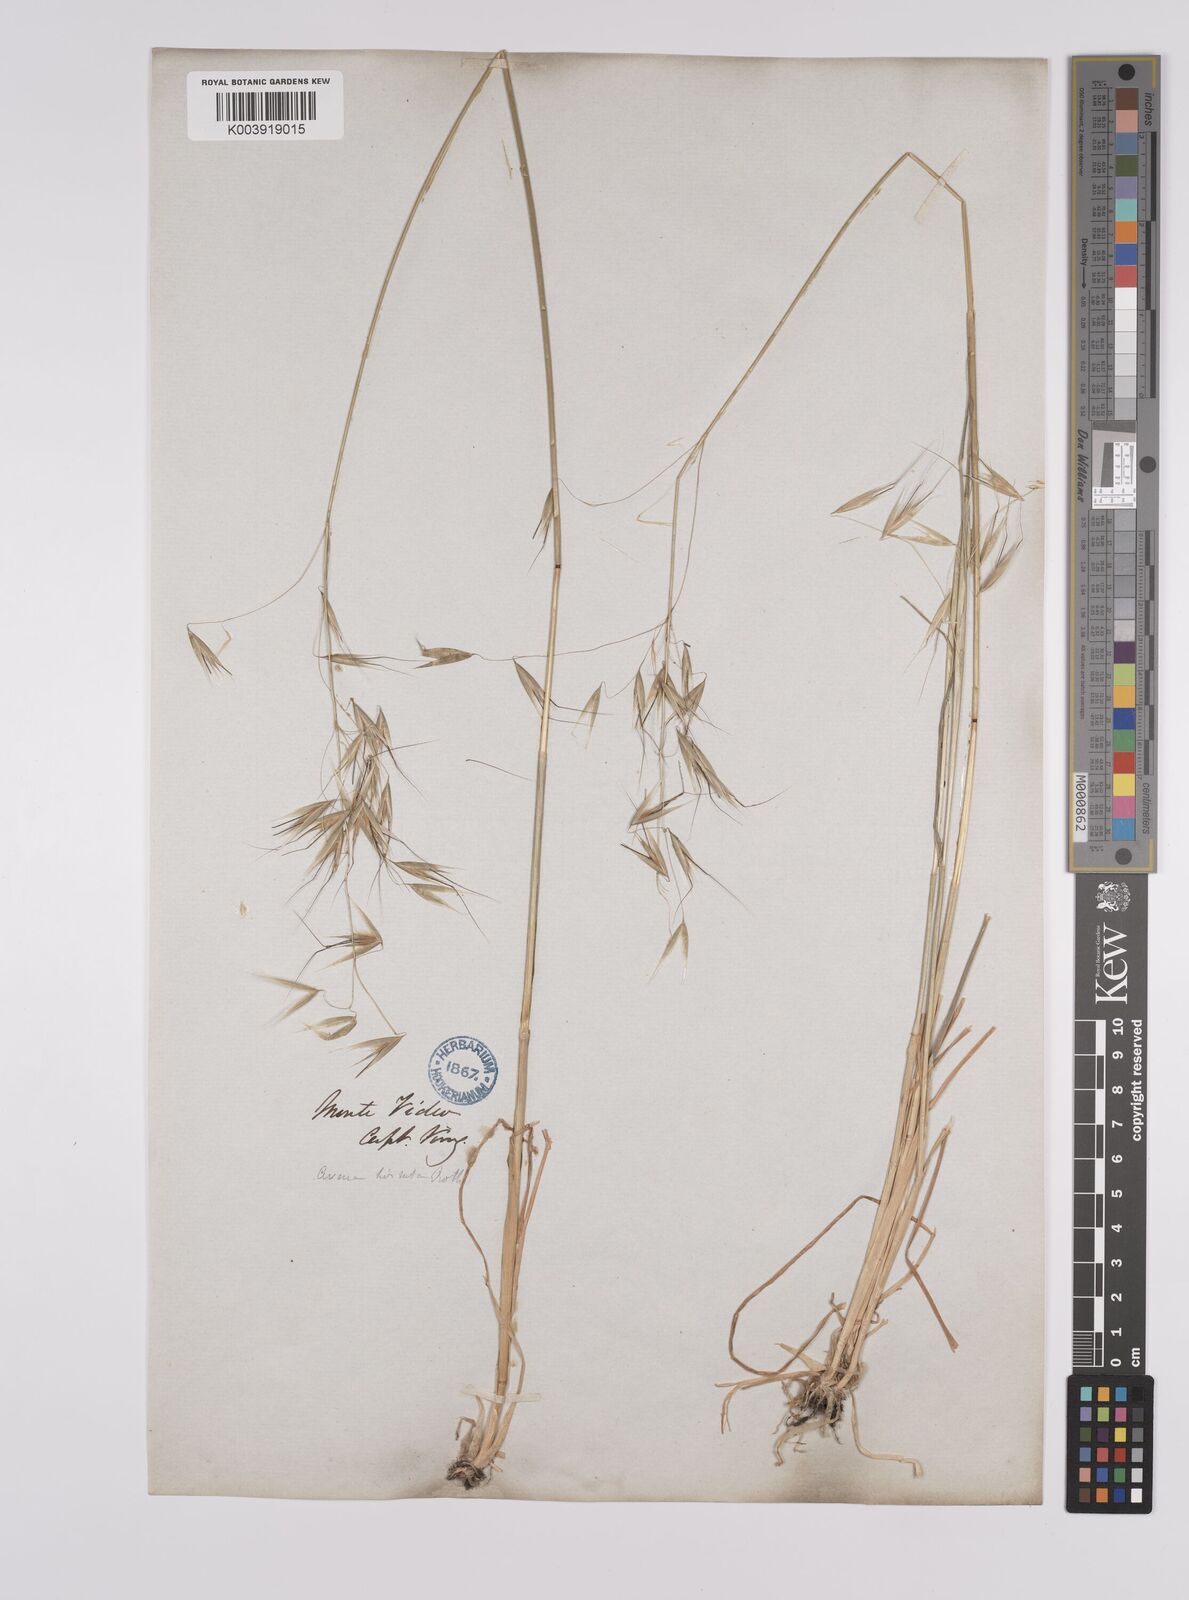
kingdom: Plantae
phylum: Tracheophyta
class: Liliopsida
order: Poales
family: Poaceae
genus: Avena
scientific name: Avena barbata
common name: Slender oat
